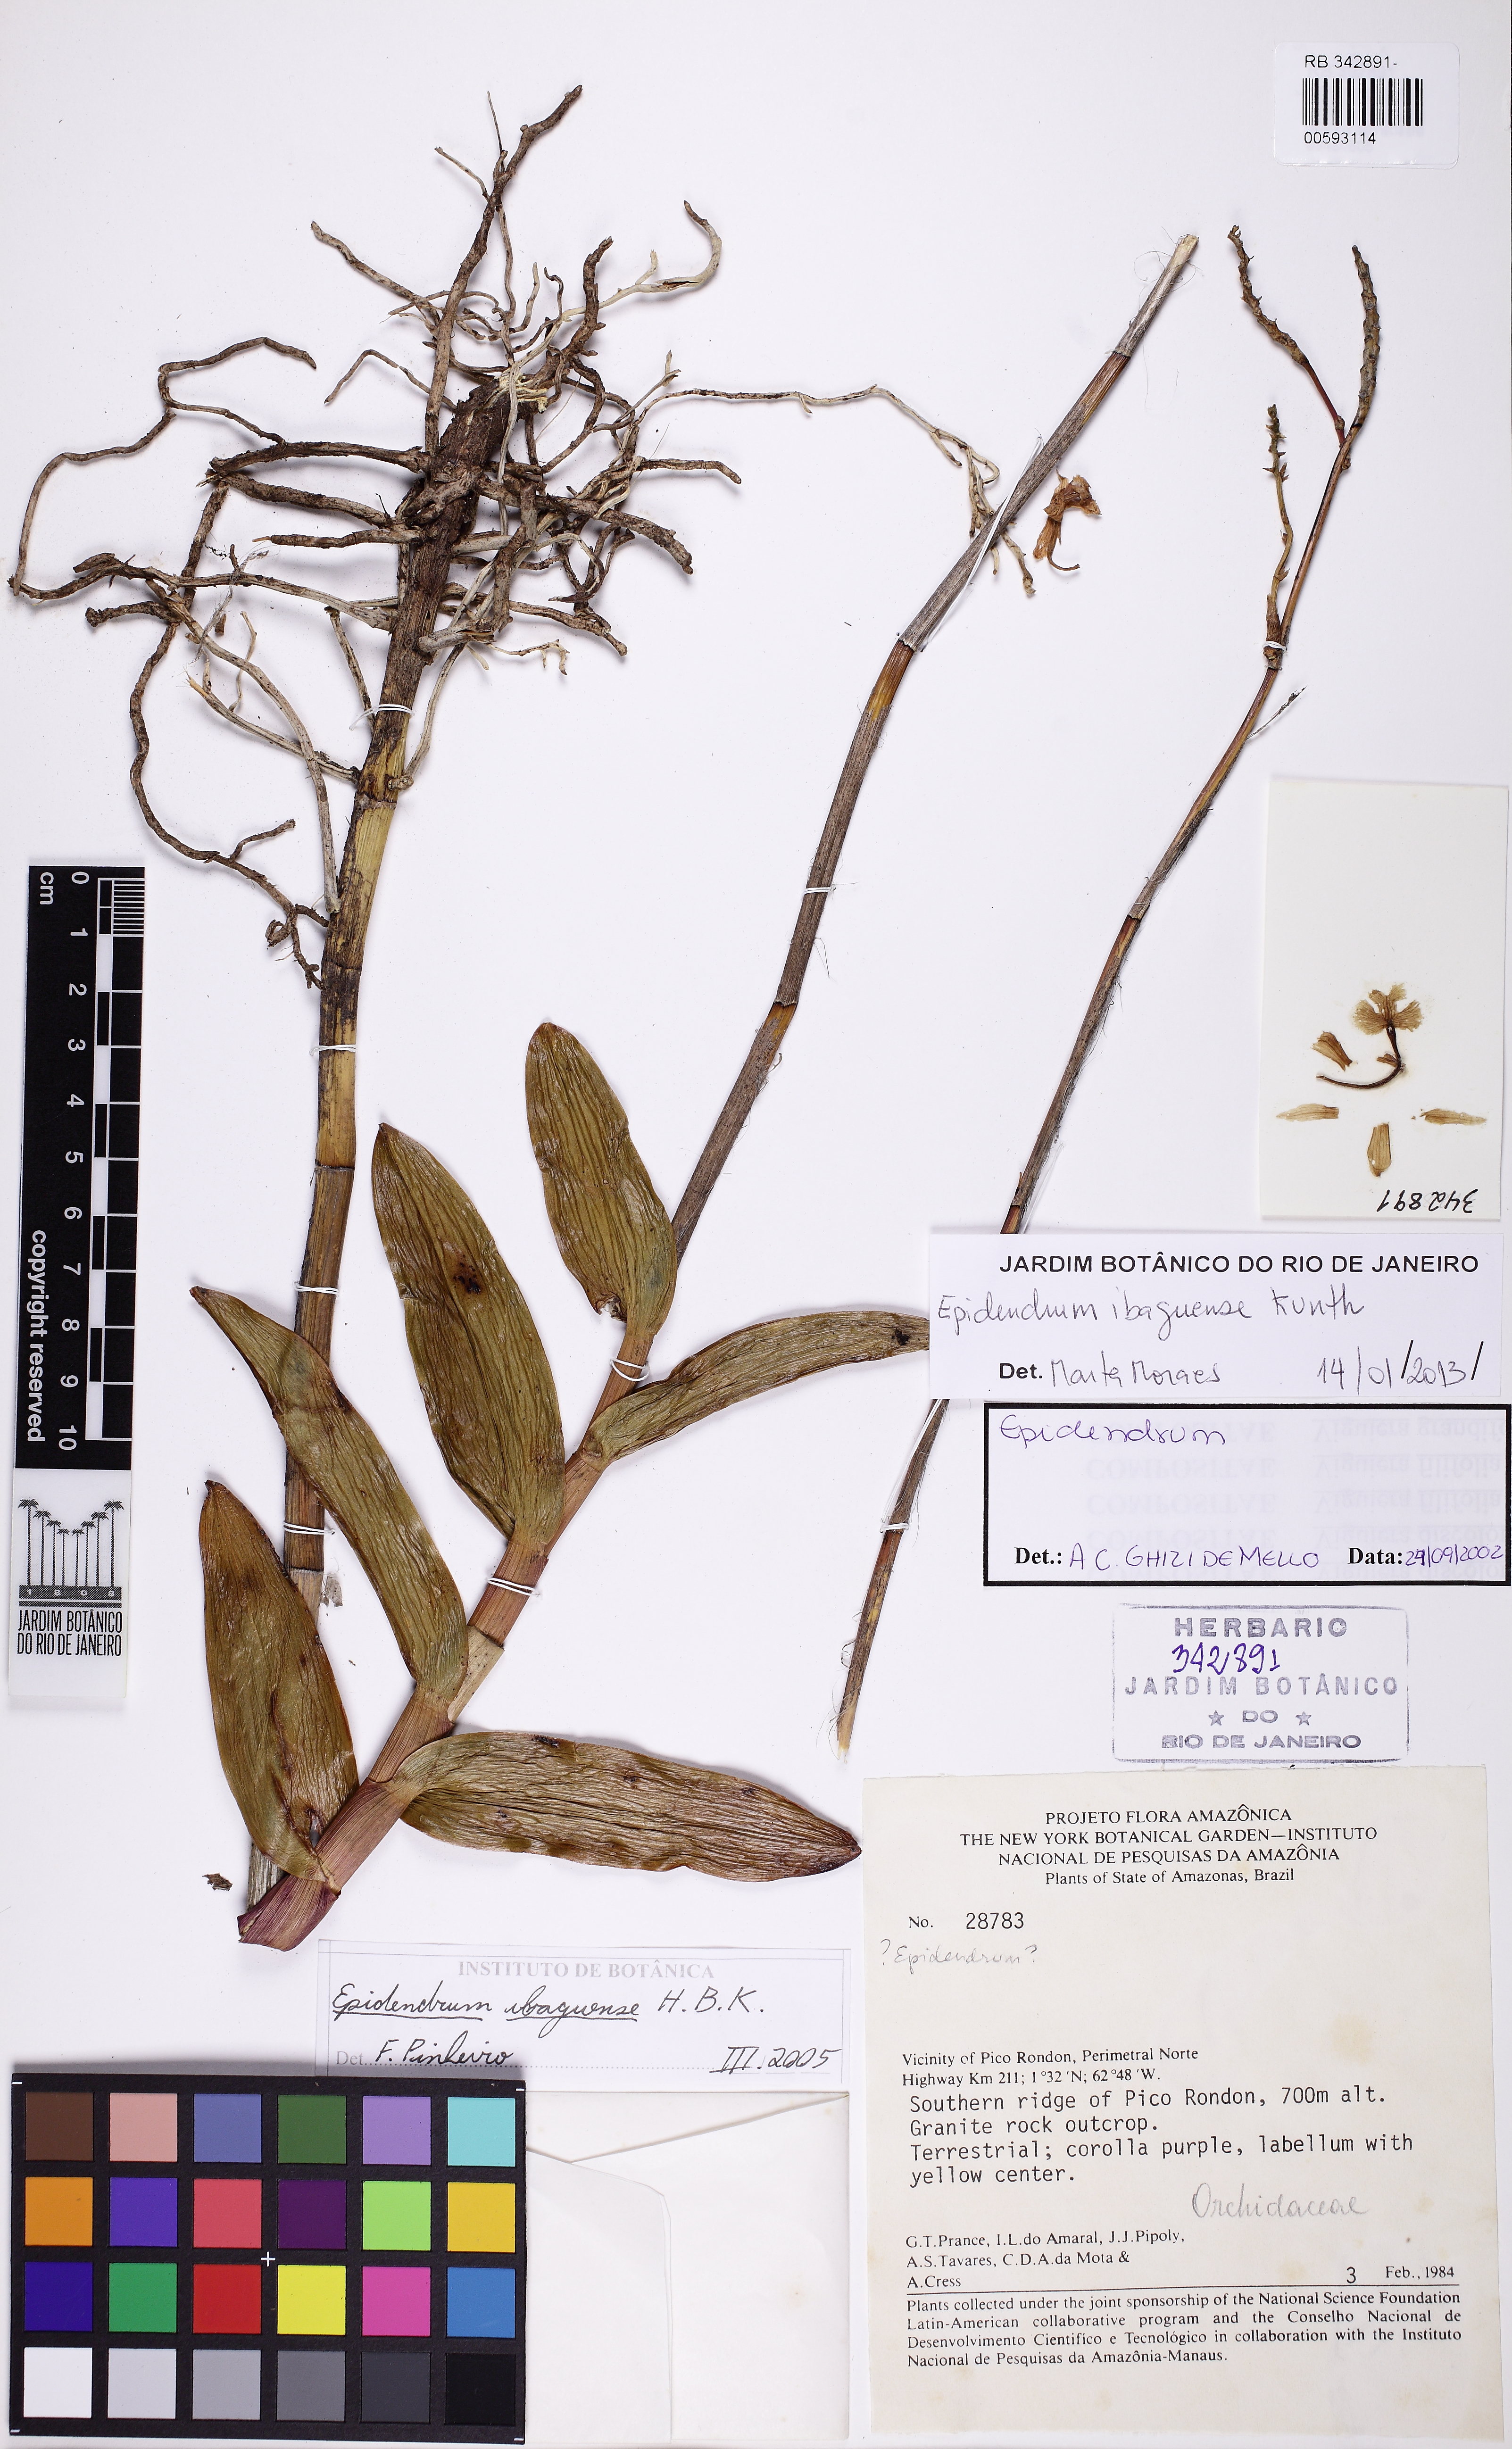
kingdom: Plantae
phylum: Tracheophyta
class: Liliopsida
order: Asparagales
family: Orchidaceae
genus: Epidendrum
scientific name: Epidendrum ibaguense
